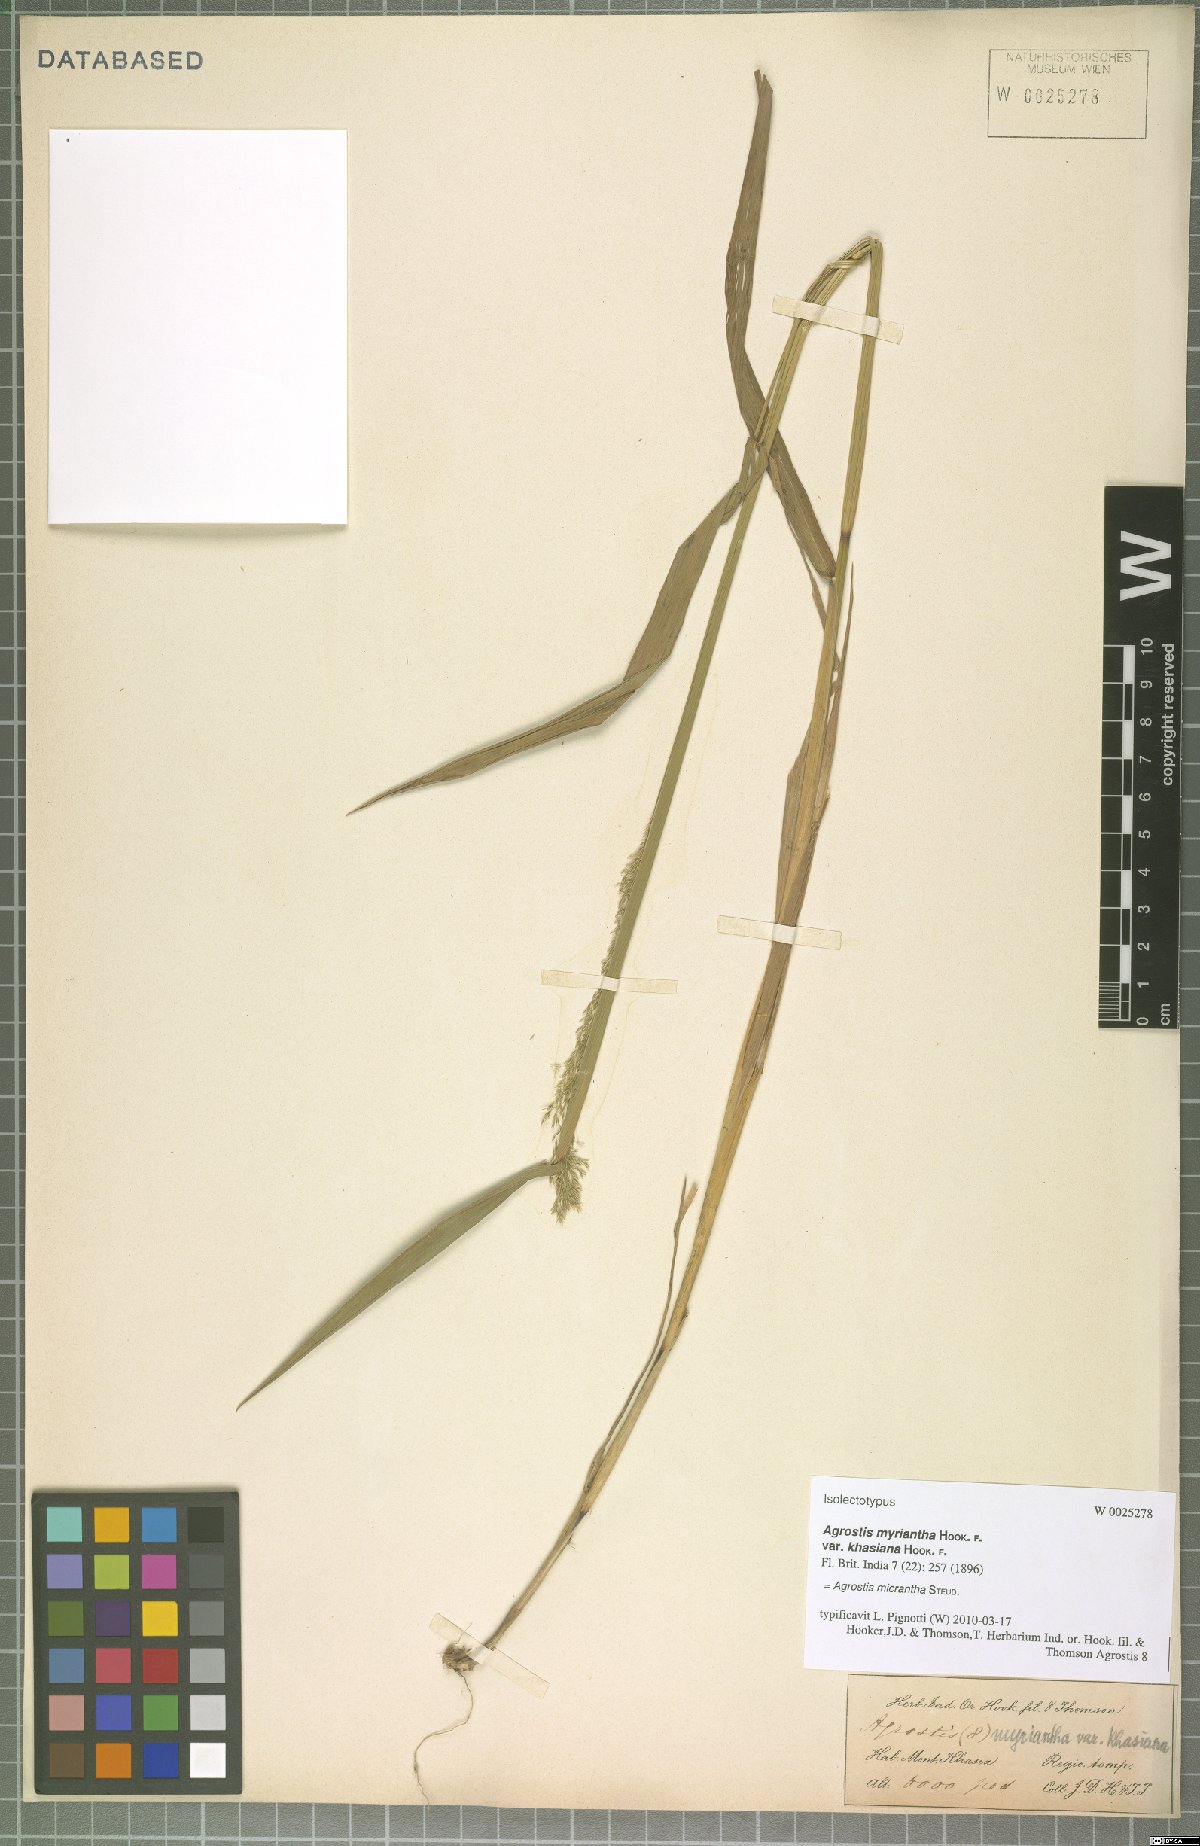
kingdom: Plantae
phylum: Tracheophyta
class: Liliopsida
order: Poales
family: Poaceae
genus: Agrostis
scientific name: Agrostis micrantha
